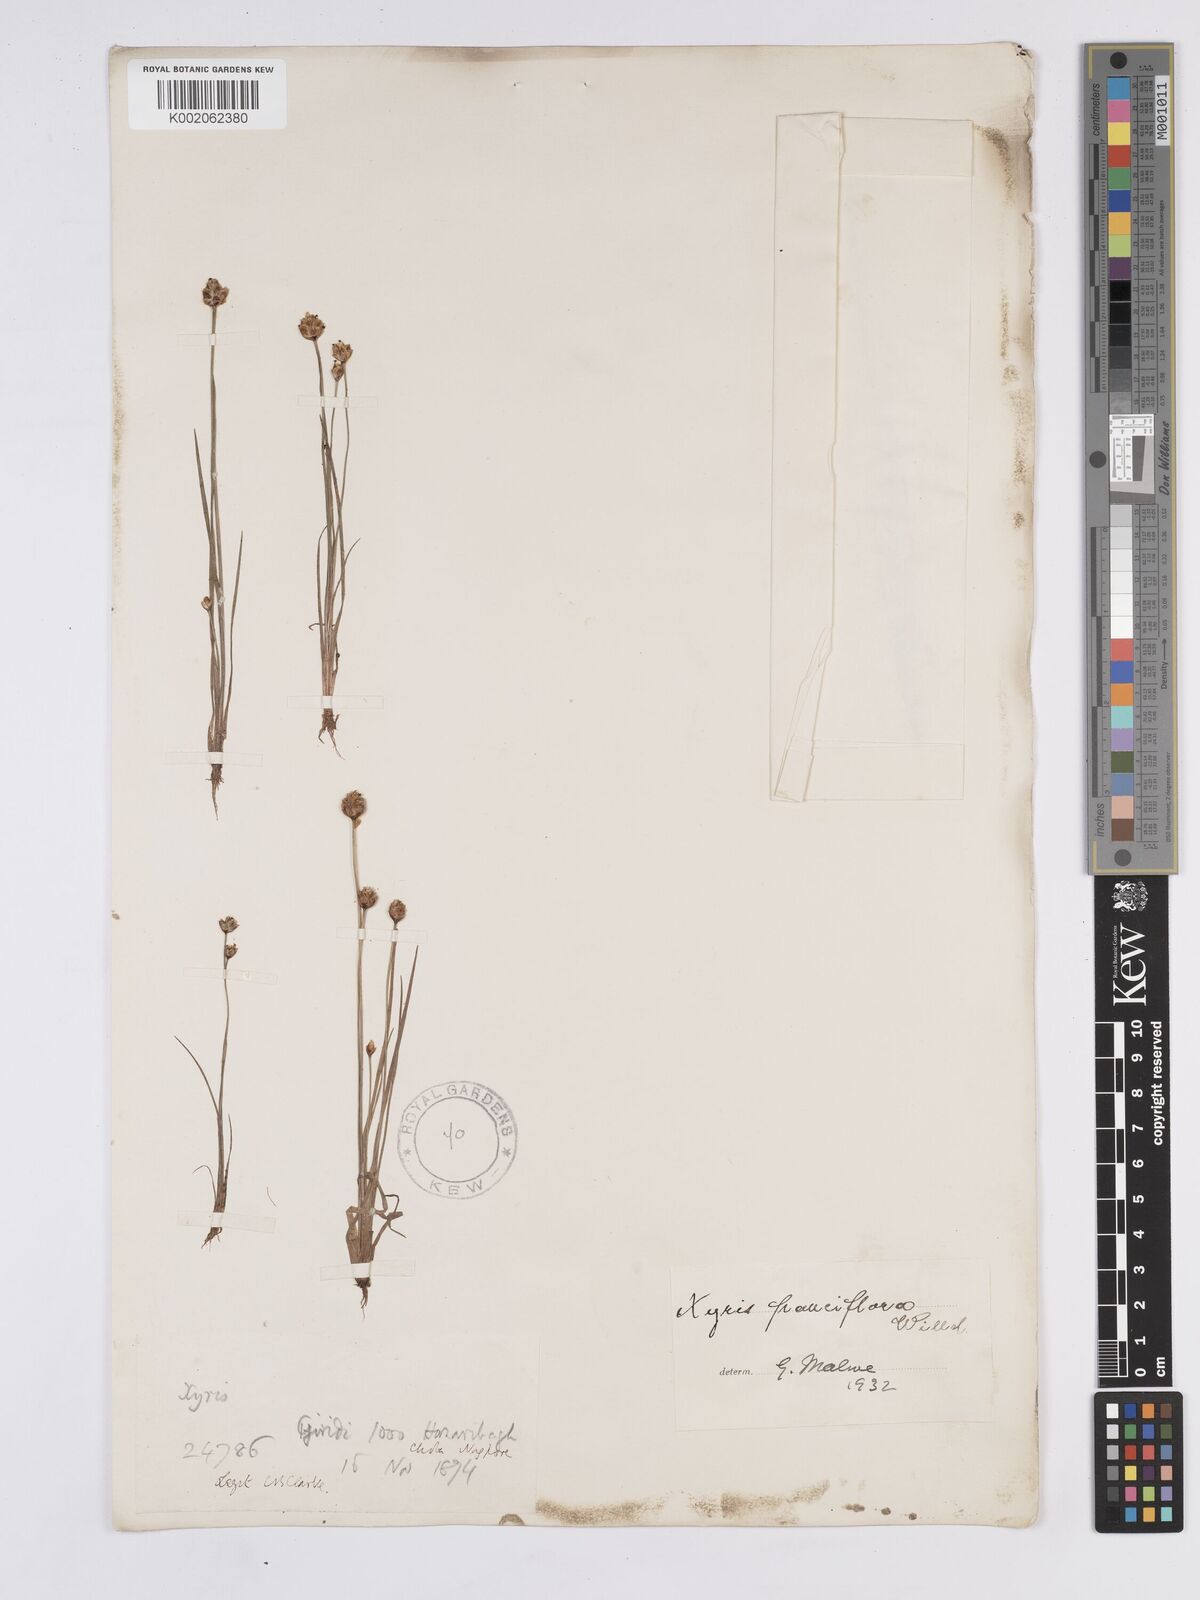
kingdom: Plantae
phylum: Tracheophyta
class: Liliopsida
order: Poales
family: Xyridaceae
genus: Xyris
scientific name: Xyris pauciflora
